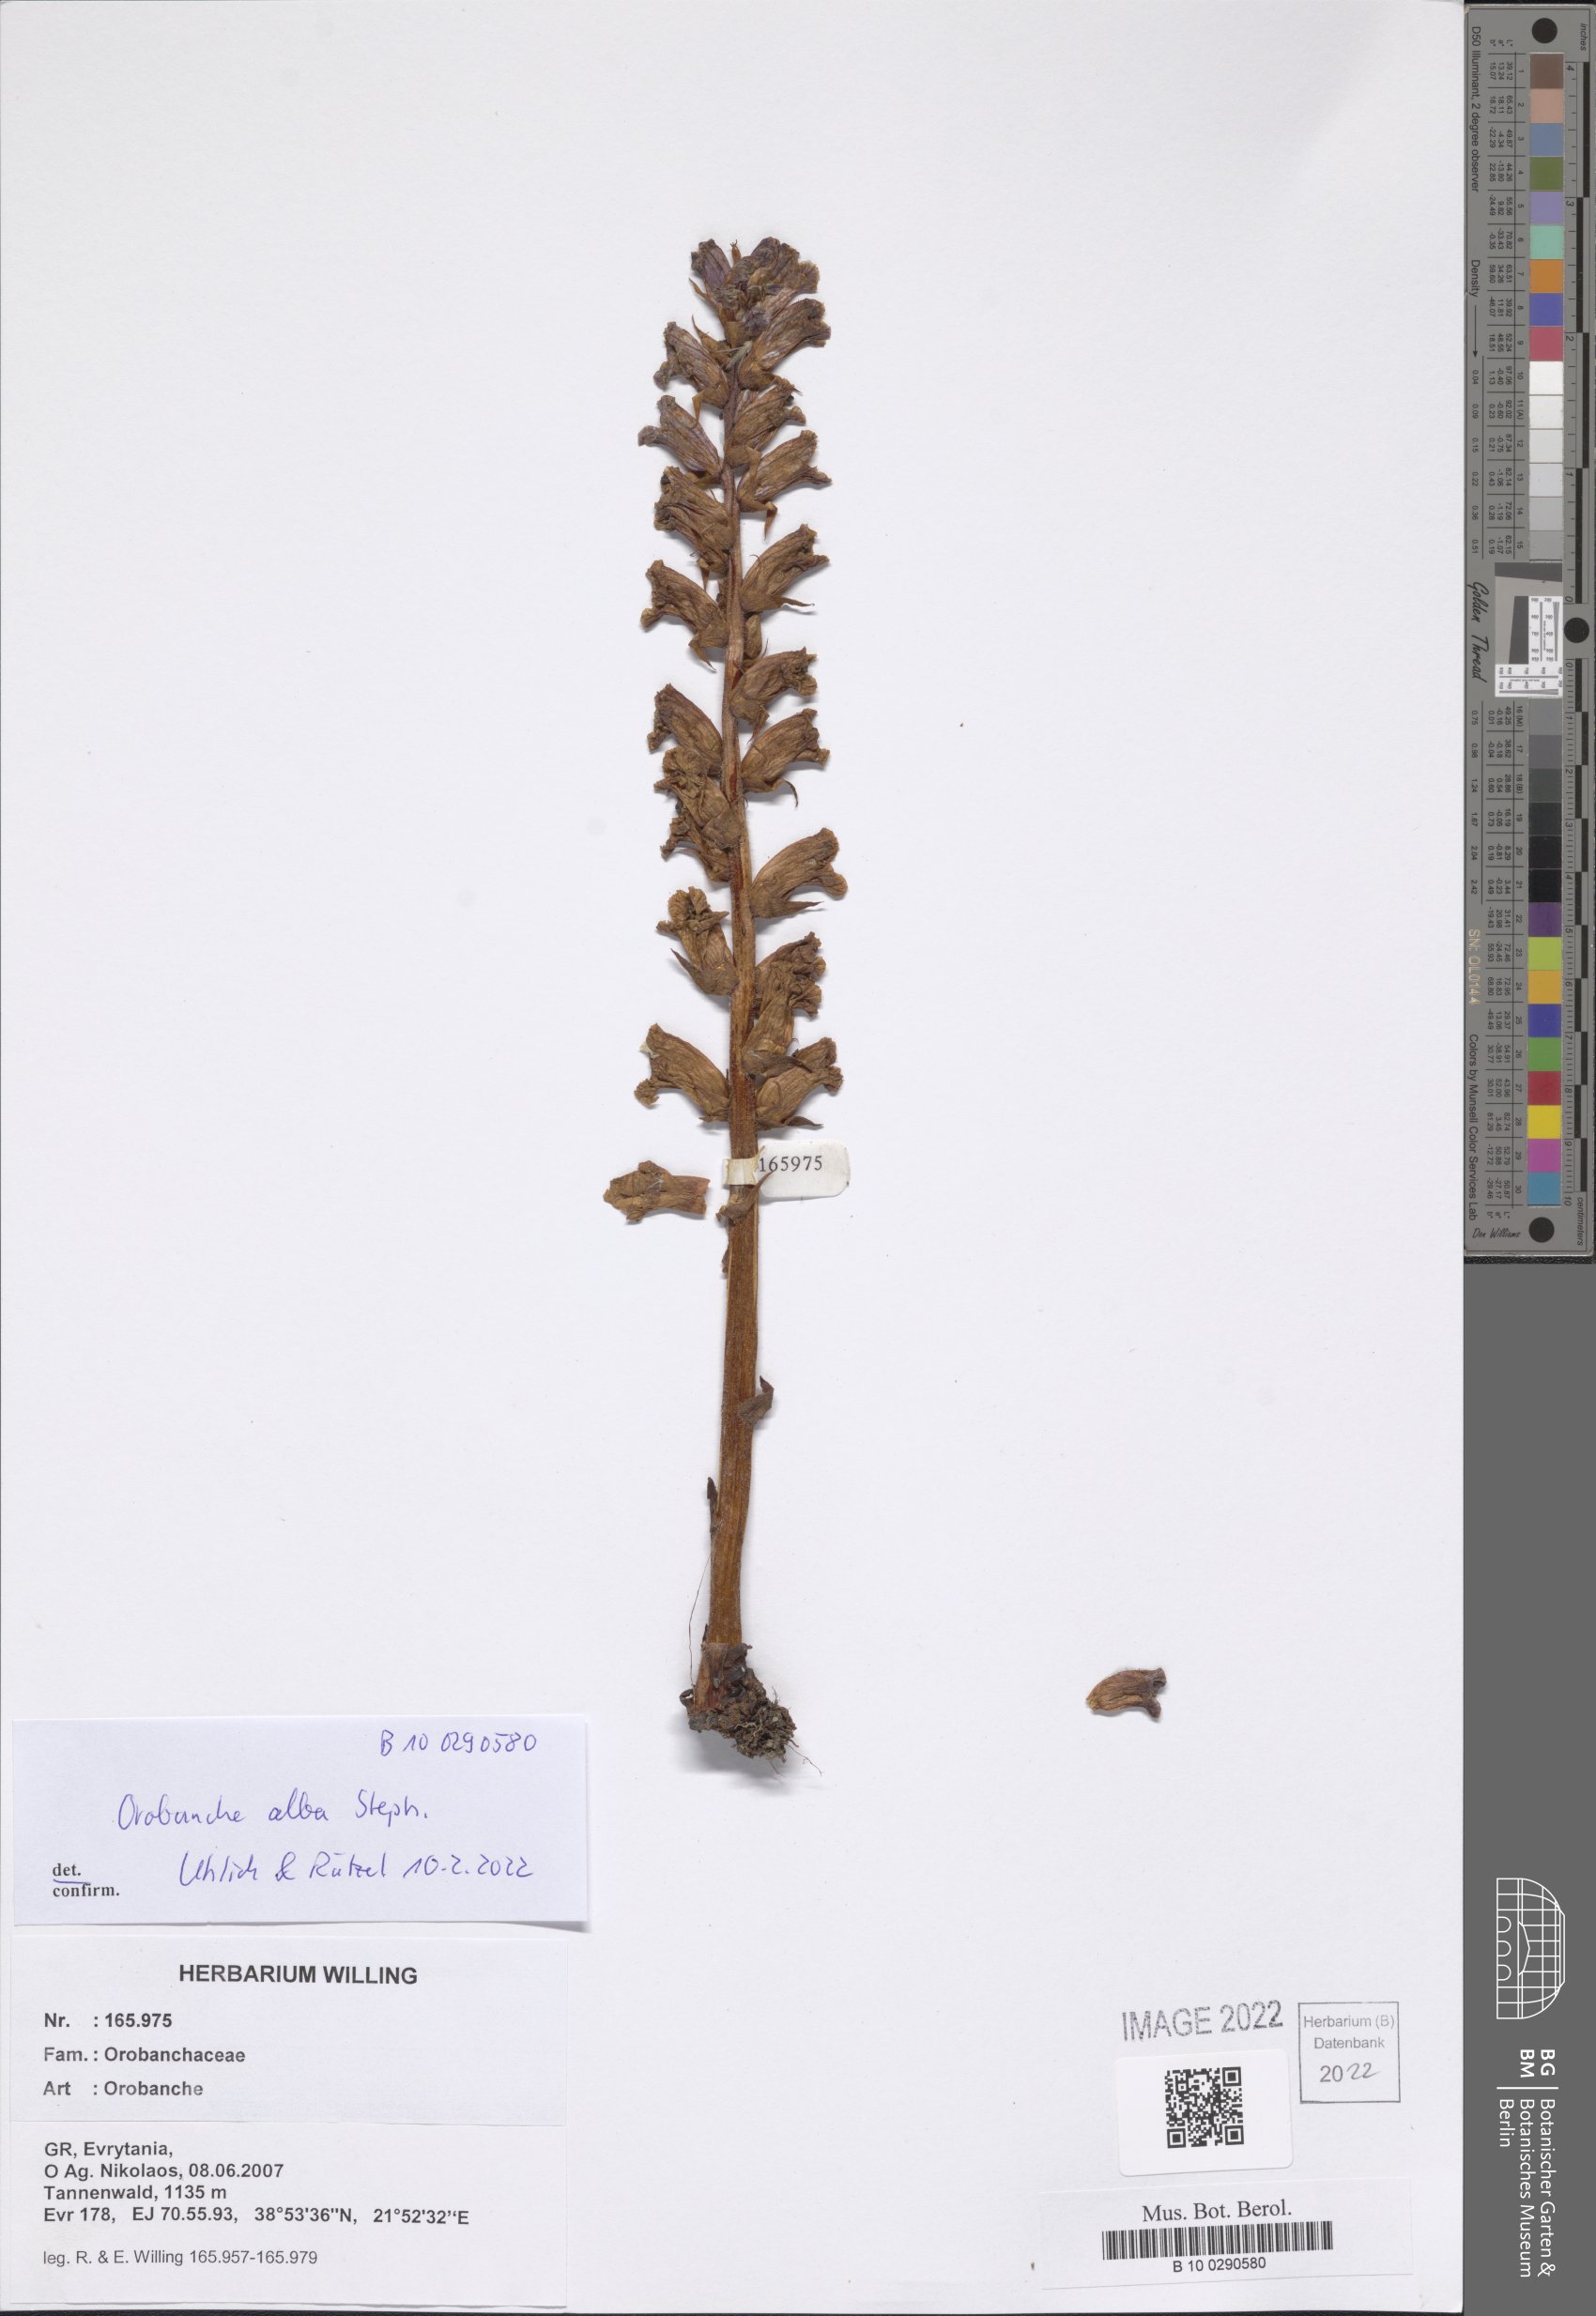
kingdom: Plantae
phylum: Tracheophyta
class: Magnoliopsida
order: Lamiales
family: Orobanchaceae
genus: Orobanche
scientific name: Orobanche alba
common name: Thyme broomrape
